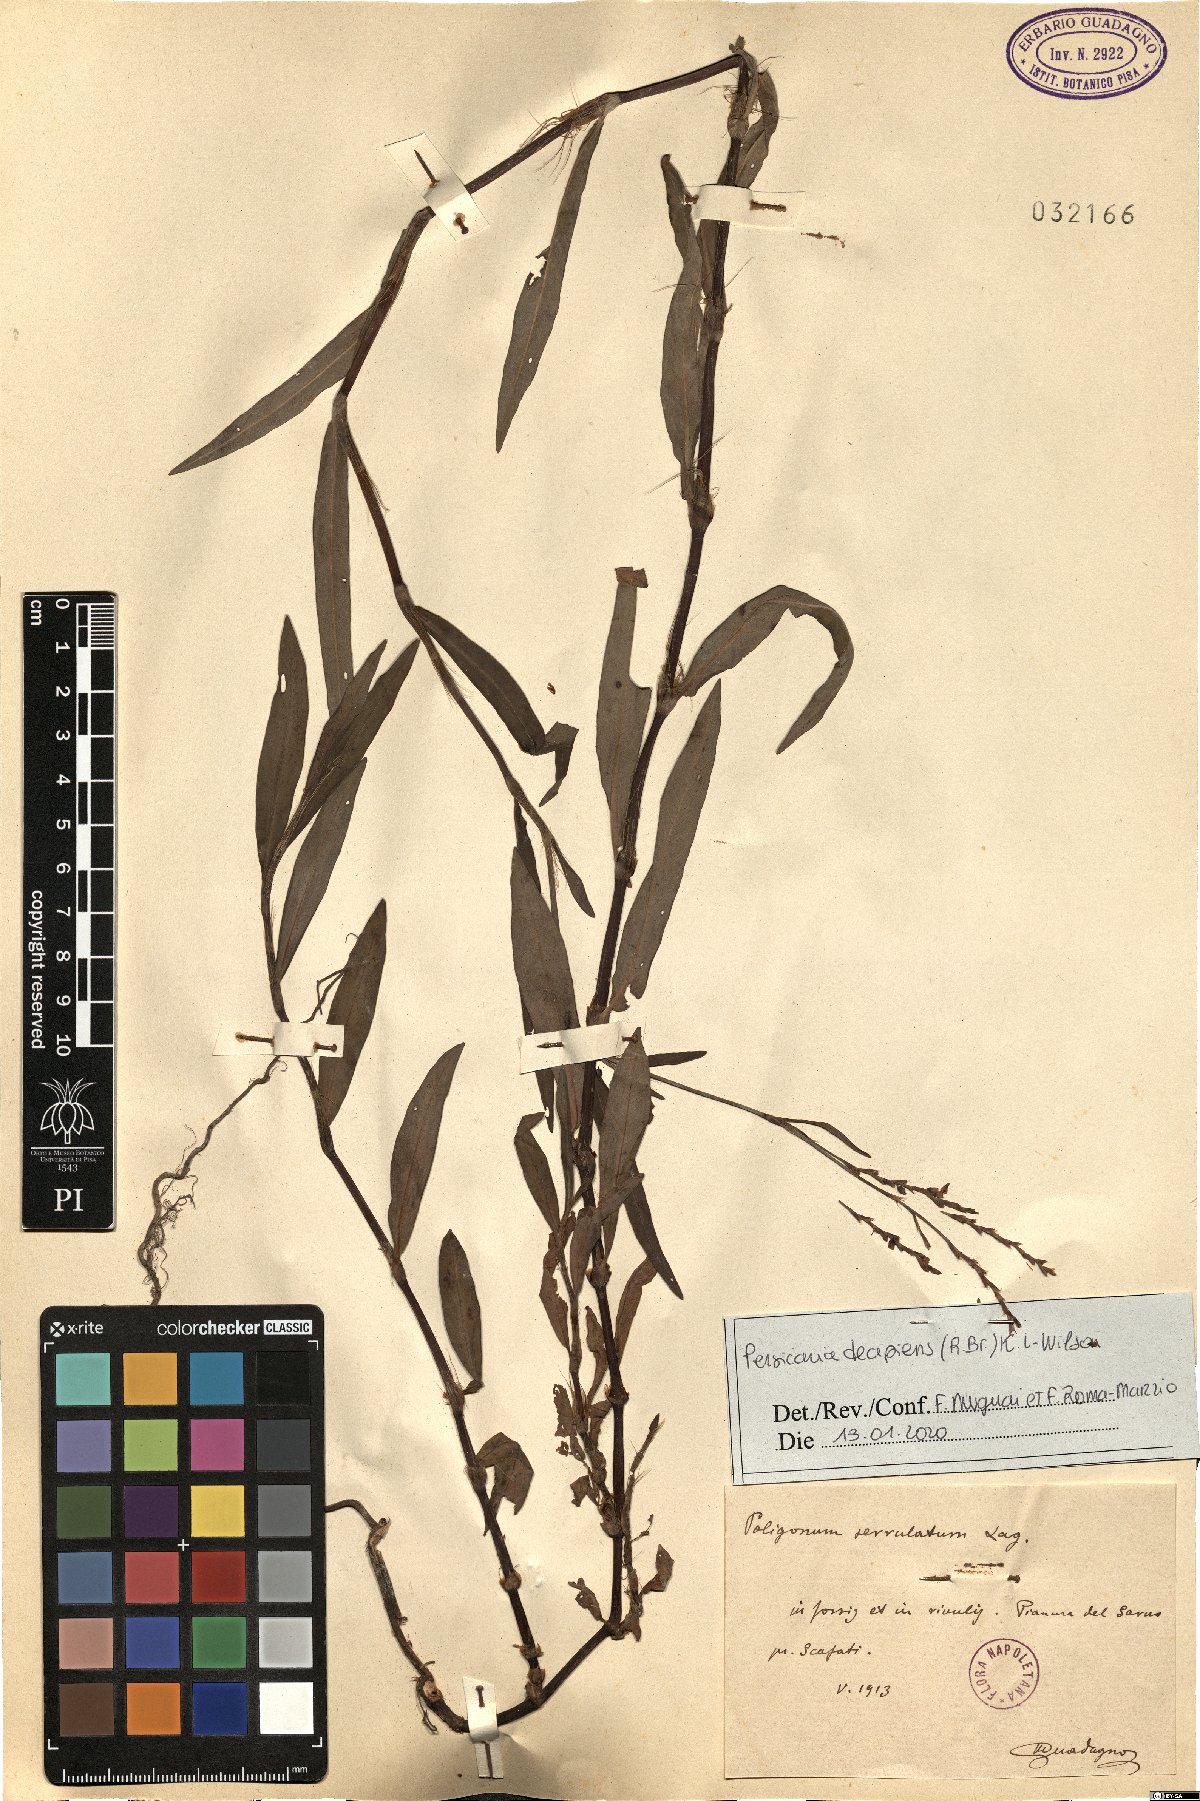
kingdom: Plantae
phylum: Tracheophyta
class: Magnoliopsida
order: Caryophyllales
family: Polygonaceae
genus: Persicaria
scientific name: Persicaria decipiens
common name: Willow-weed
